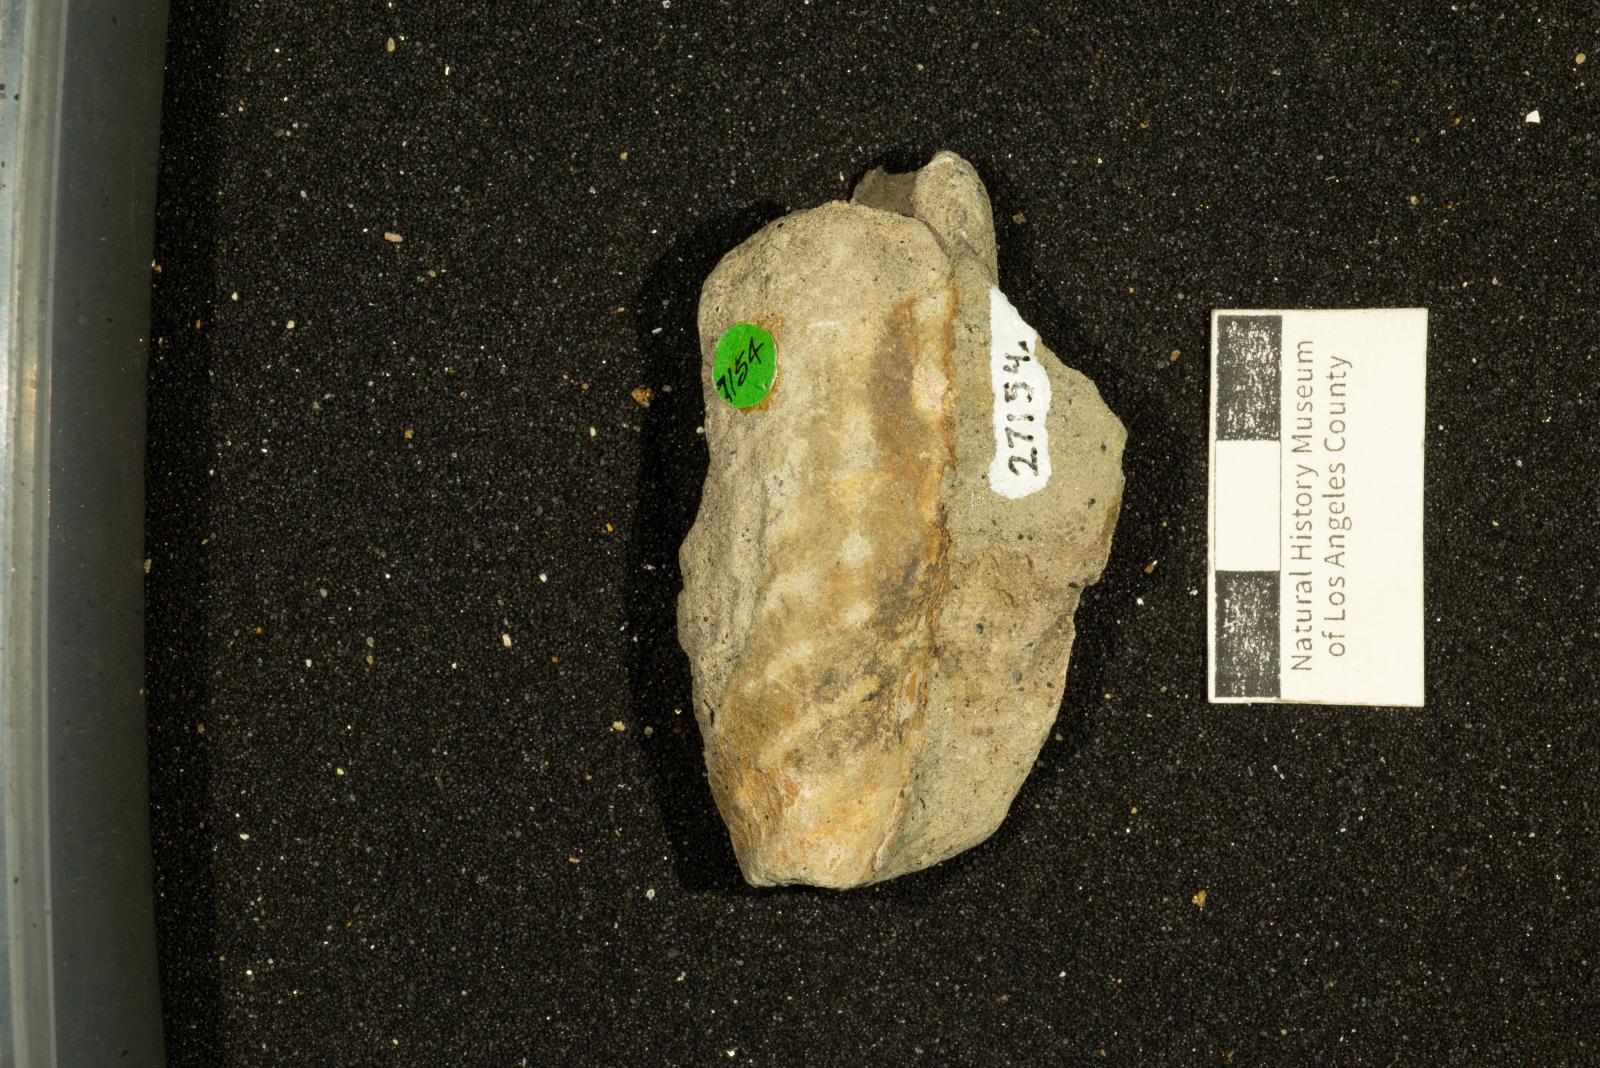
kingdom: Animalia
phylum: Mollusca
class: Gastropoda
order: Neogastropoda
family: Pholidotomidae
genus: Longoconcha
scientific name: Longoconcha eumeka
